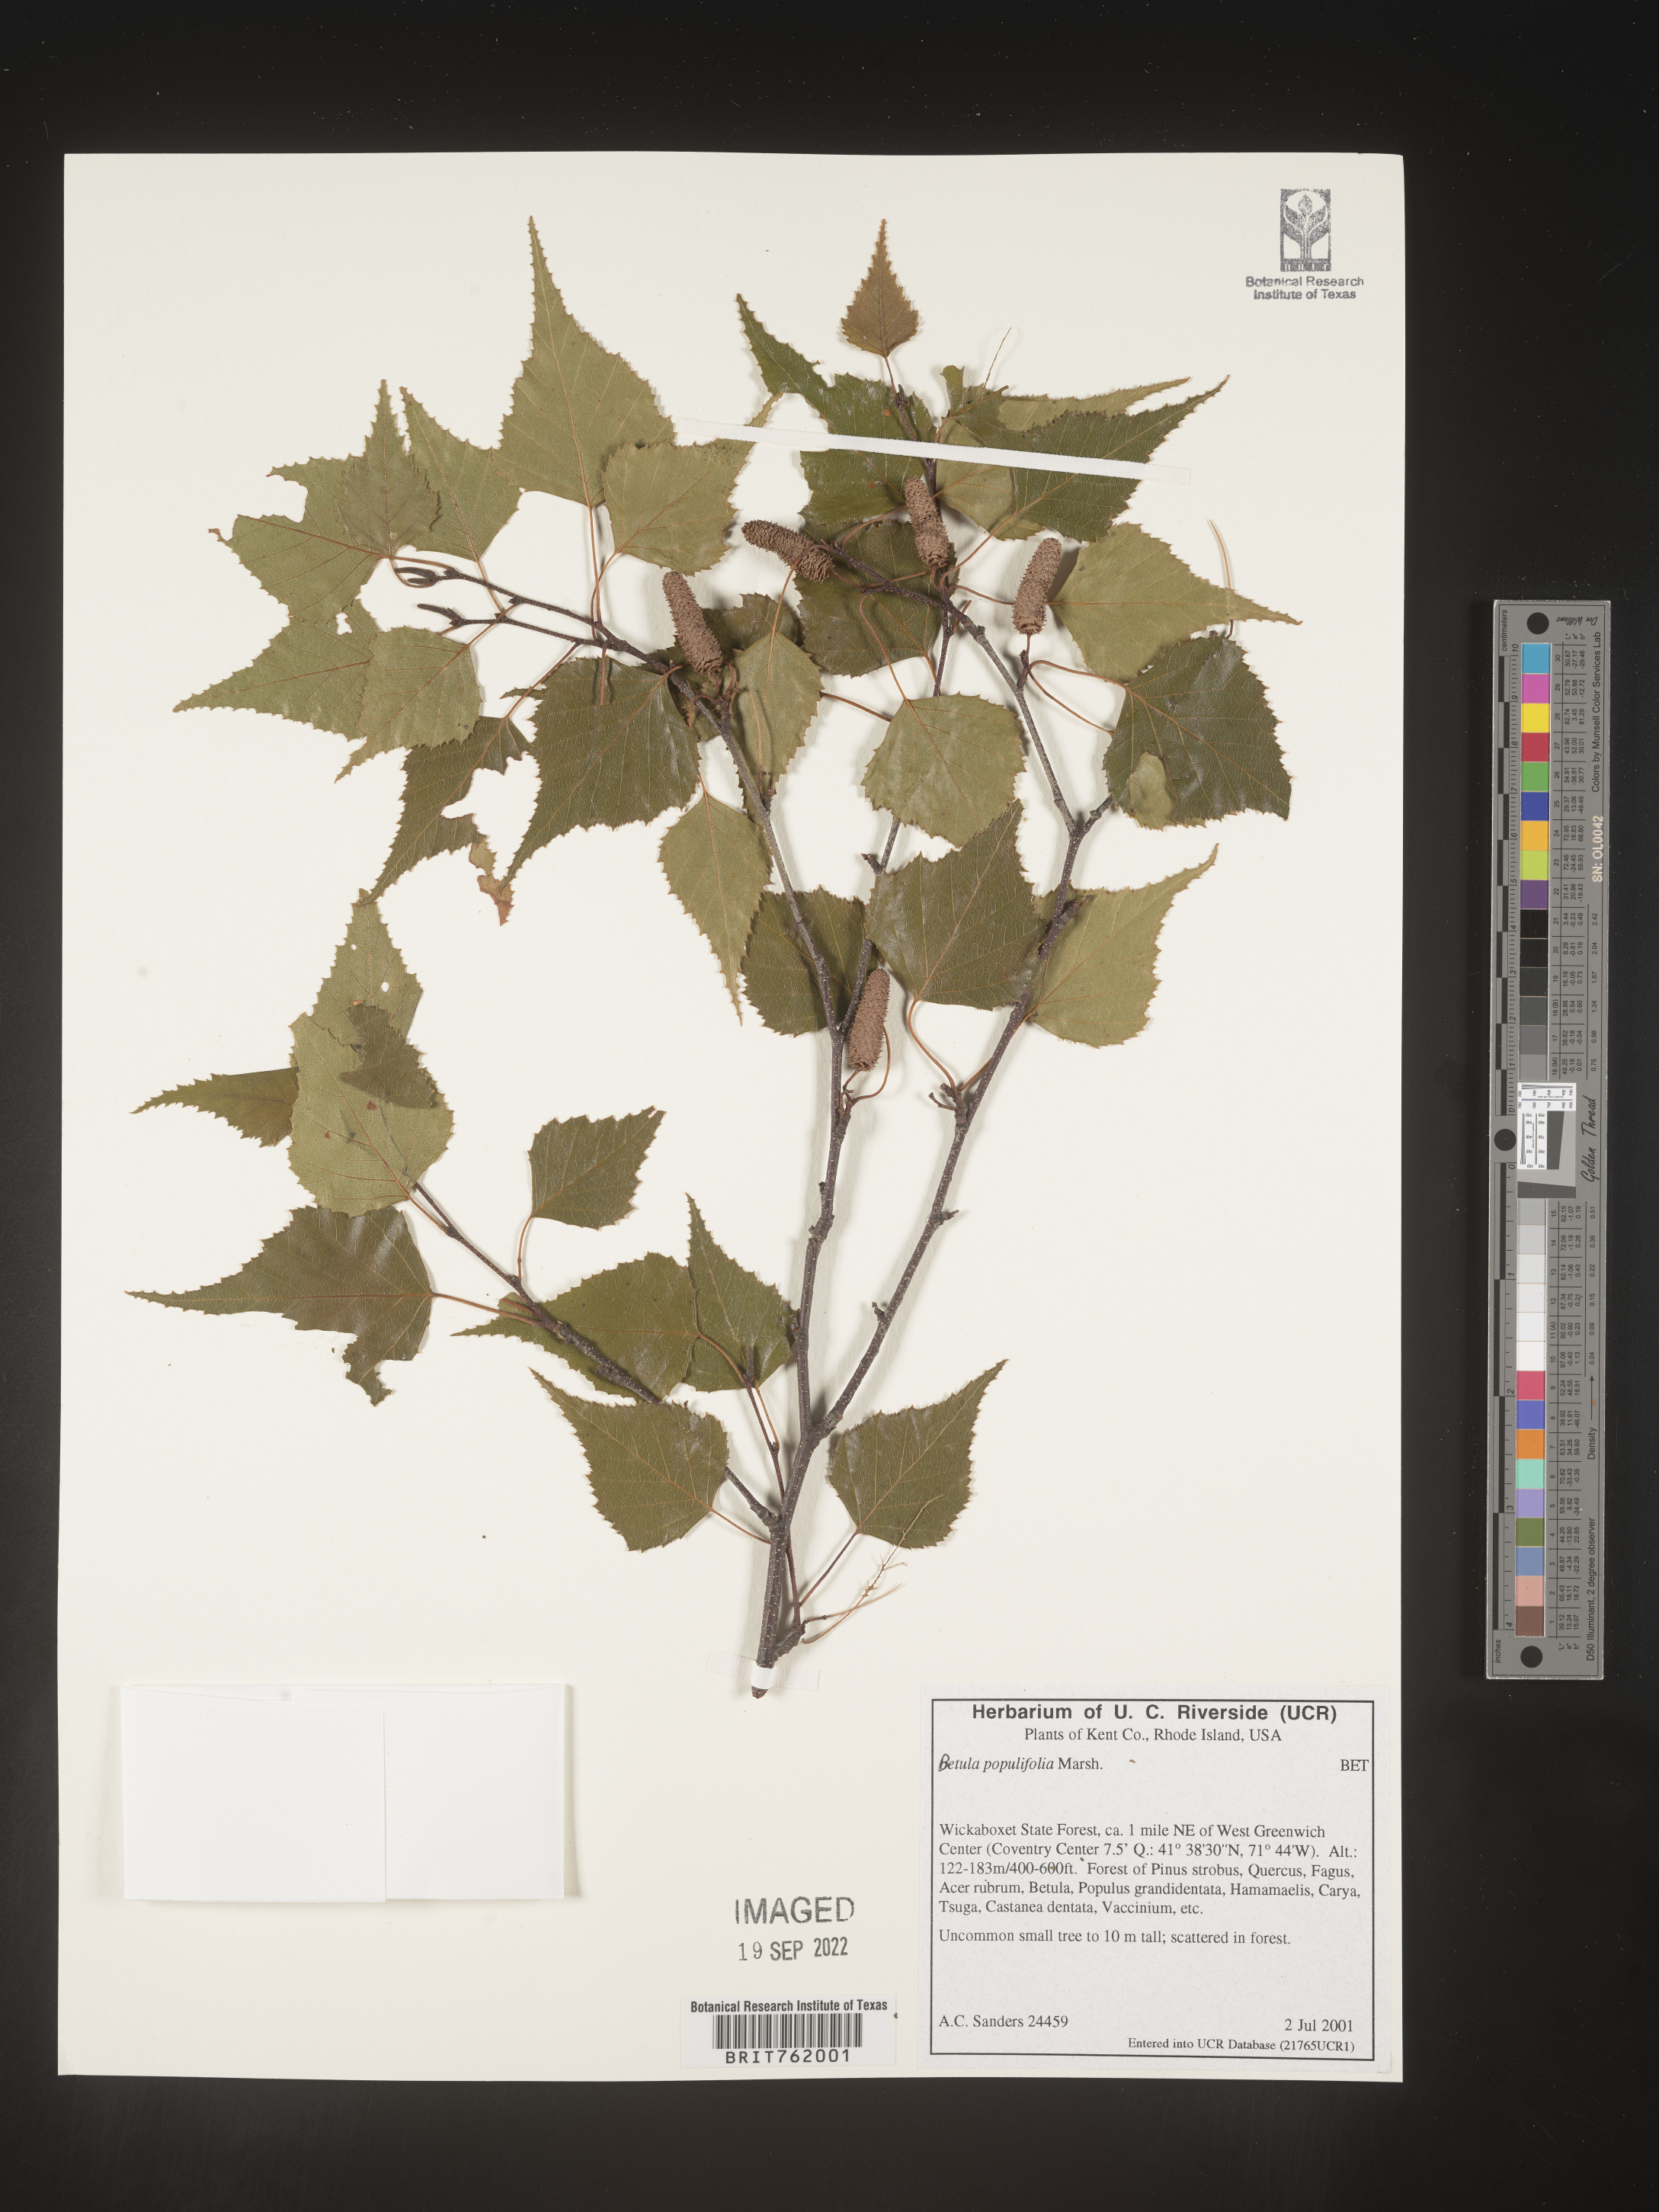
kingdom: Plantae
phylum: Tracheophyta
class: Magnoliopsida
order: Fagales
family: Betulaceae
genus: Betula
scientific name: Betula populifolia
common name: Fire birch
